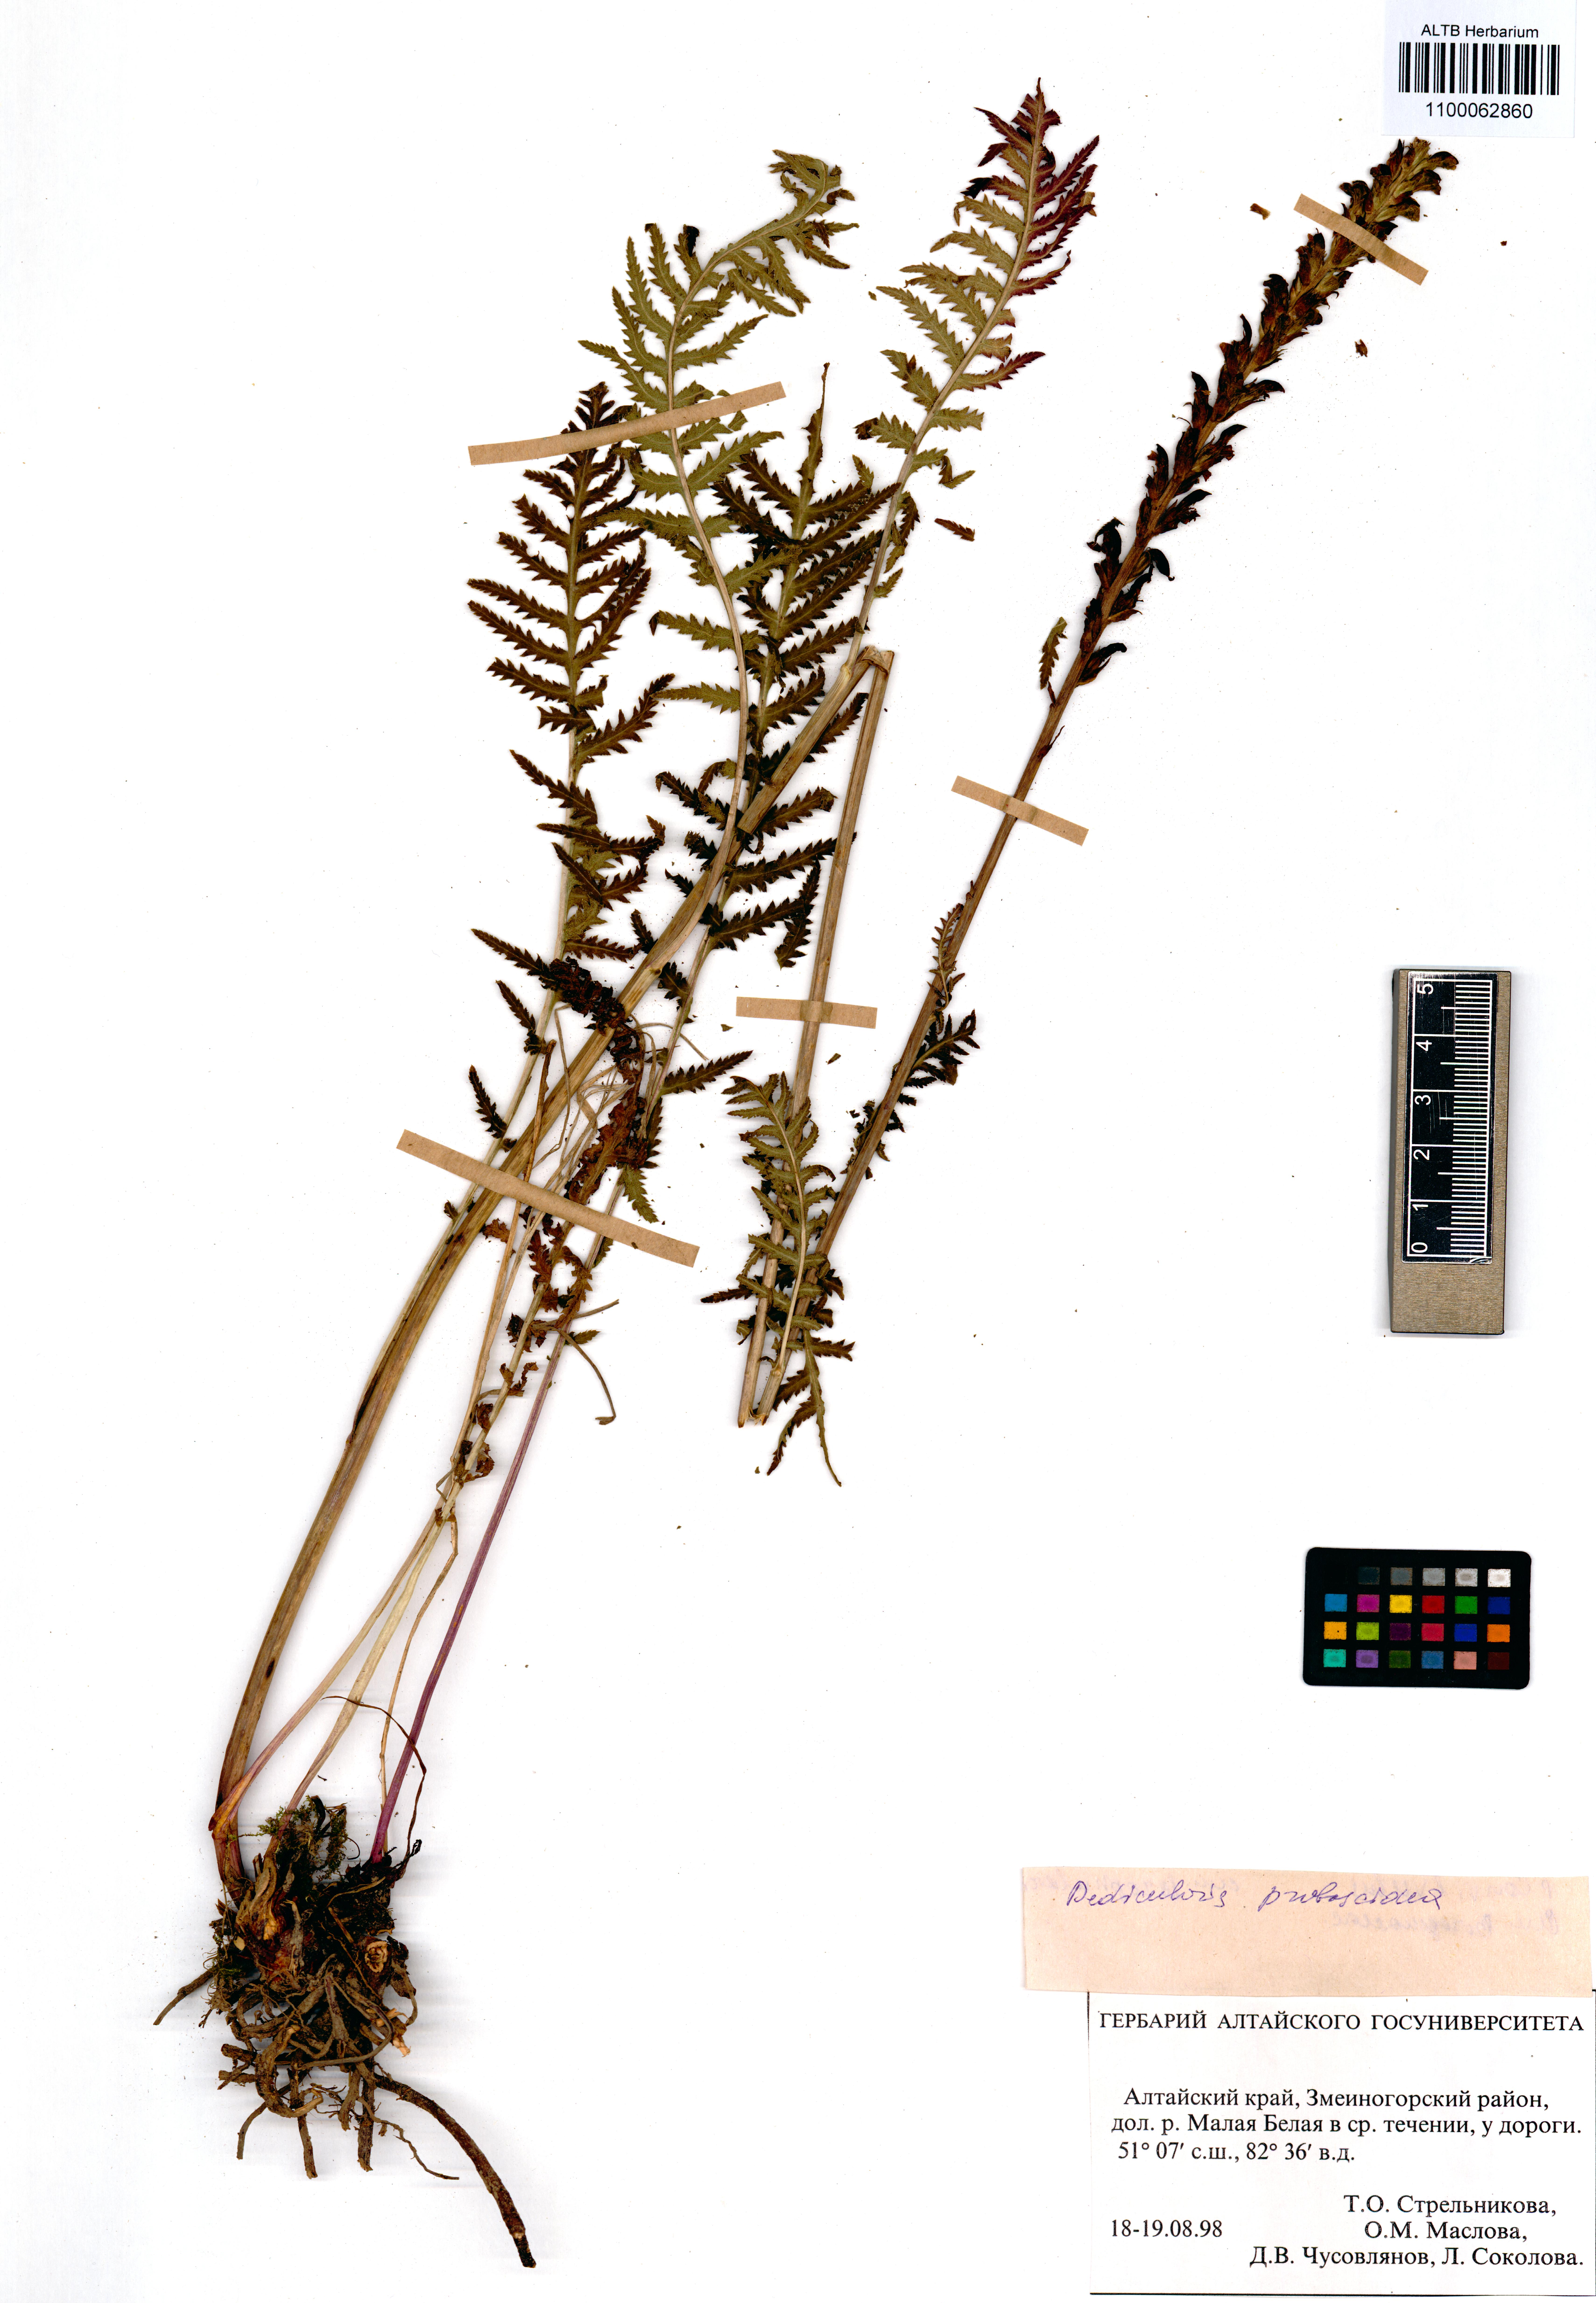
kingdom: Plantae
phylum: Tracheophyta
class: Magnoliopsida
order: Lamiales
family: Orobanchaceae
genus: Pedicularis
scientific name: Pedicularis cenisia
